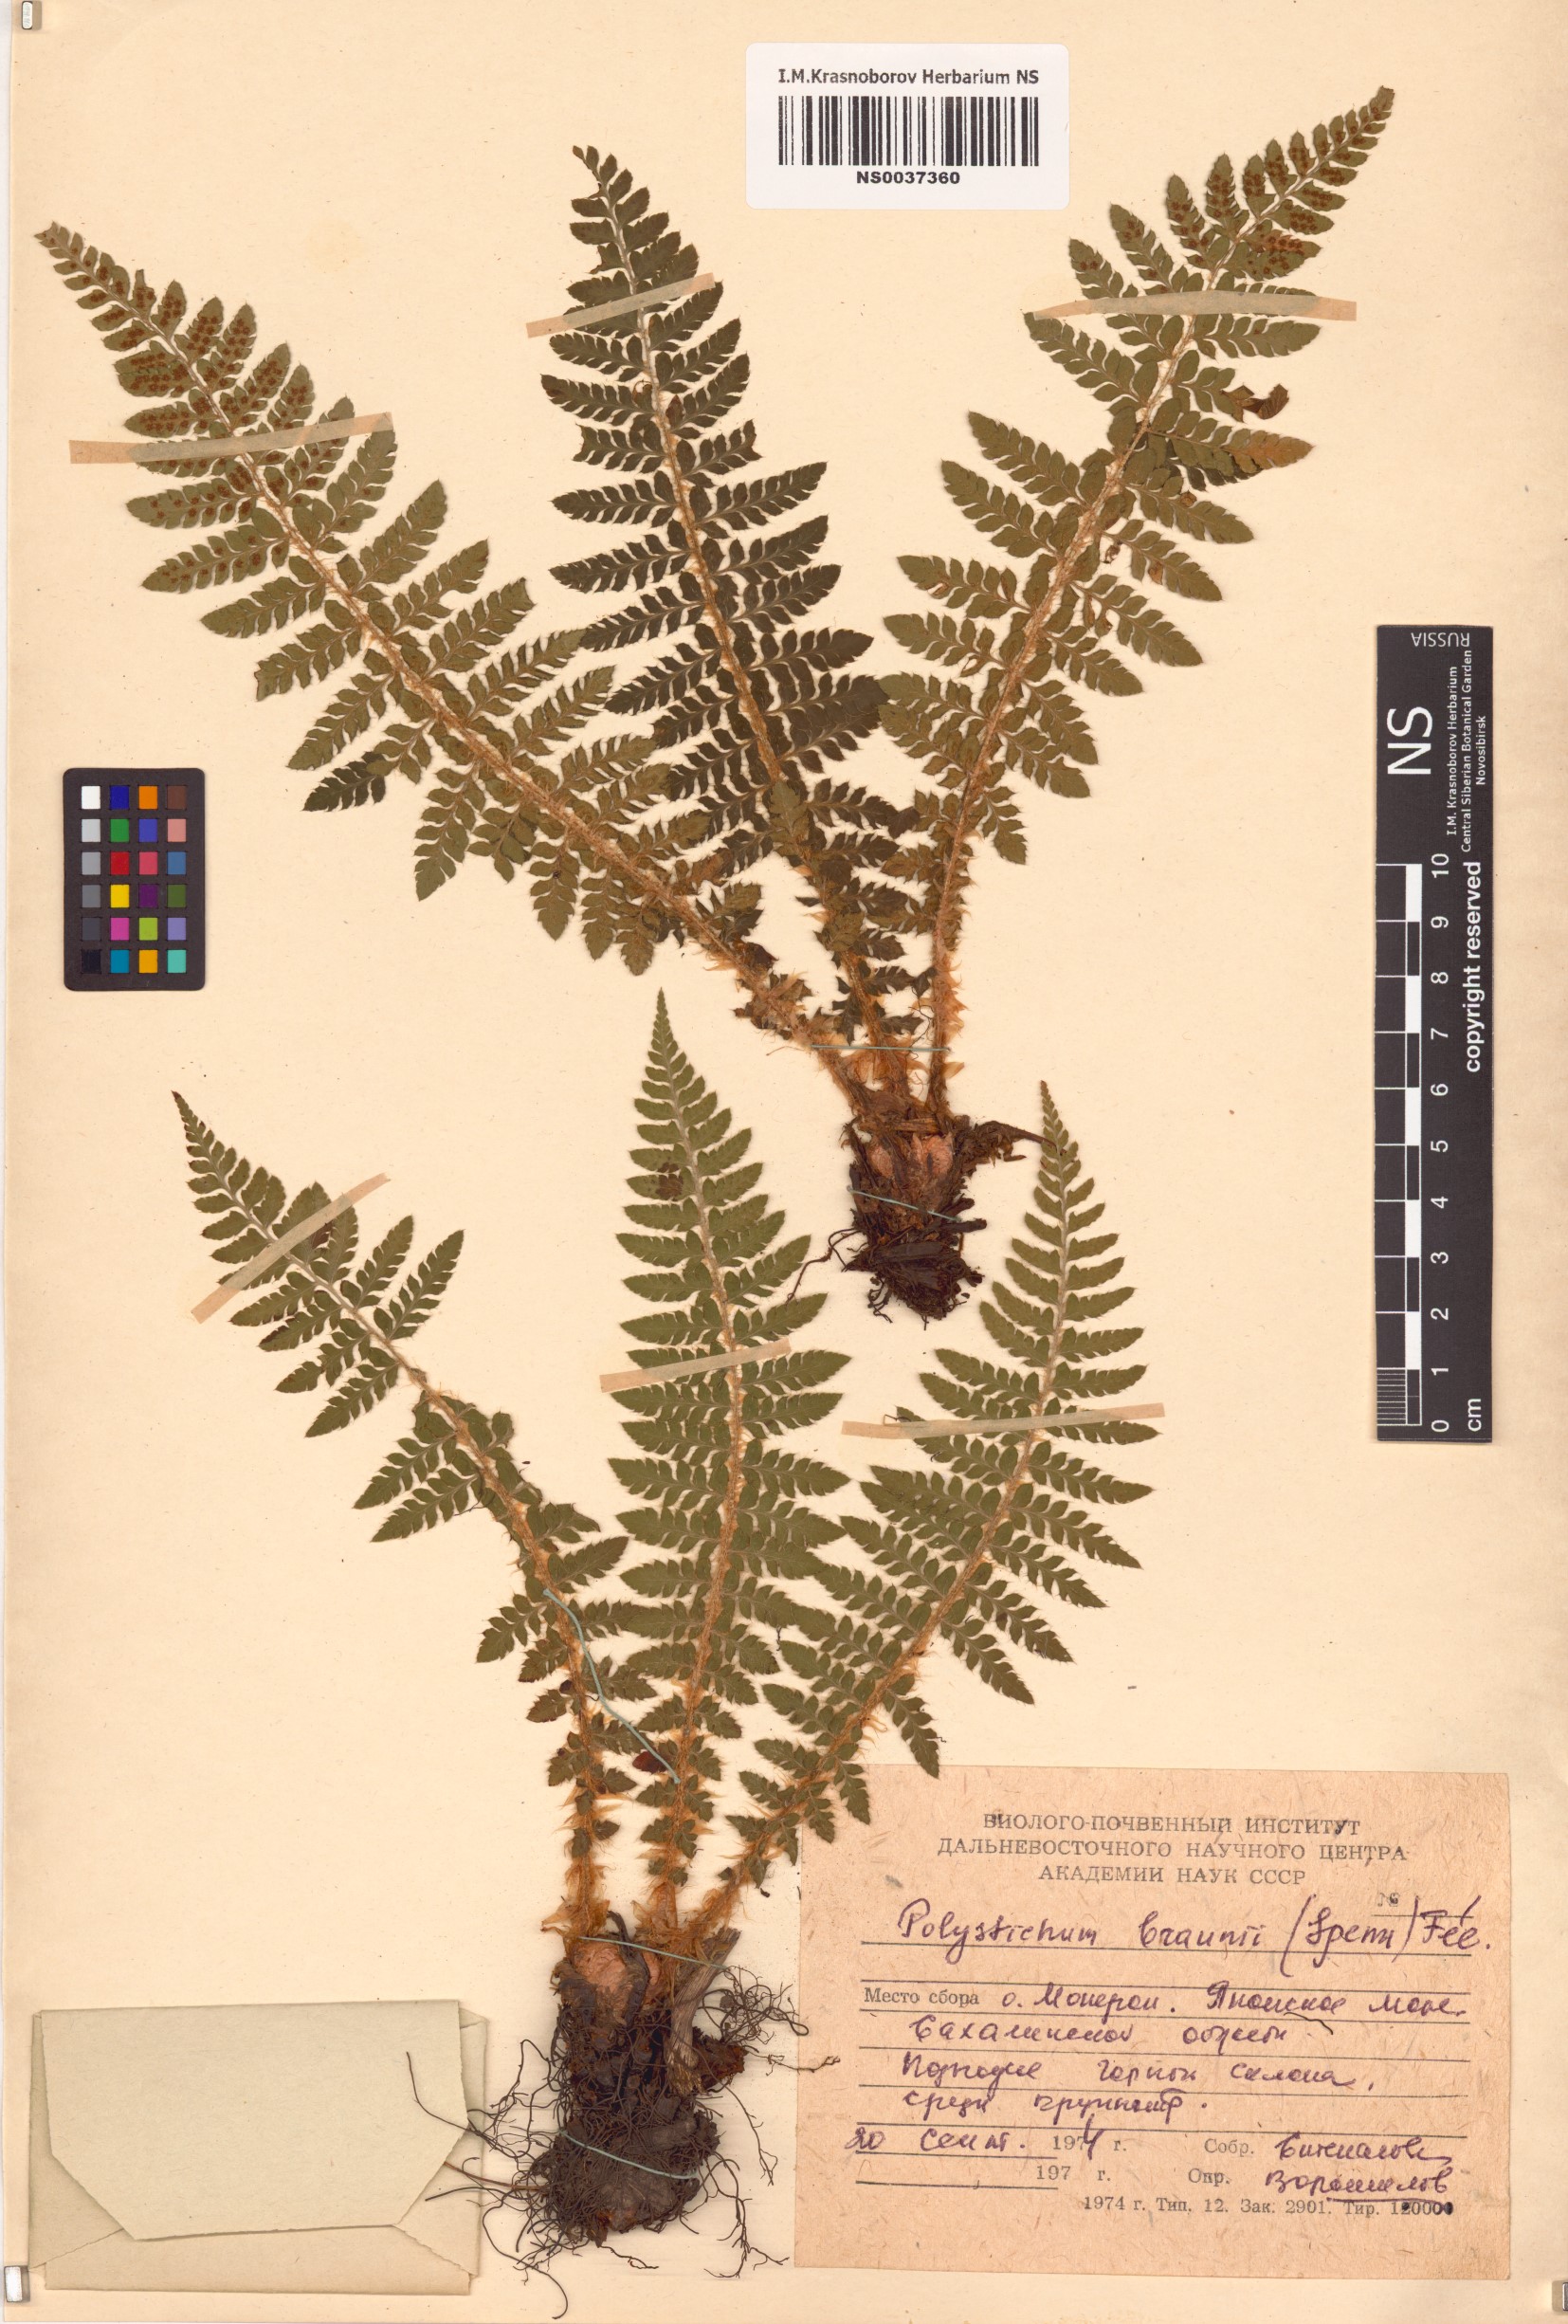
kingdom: Plantae
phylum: Tracheophyta
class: Polypodiopsida
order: Polypodiales
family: Dryopteridaceae
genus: Polystichum
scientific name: Polystichum braunii
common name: Braun's holly fern
